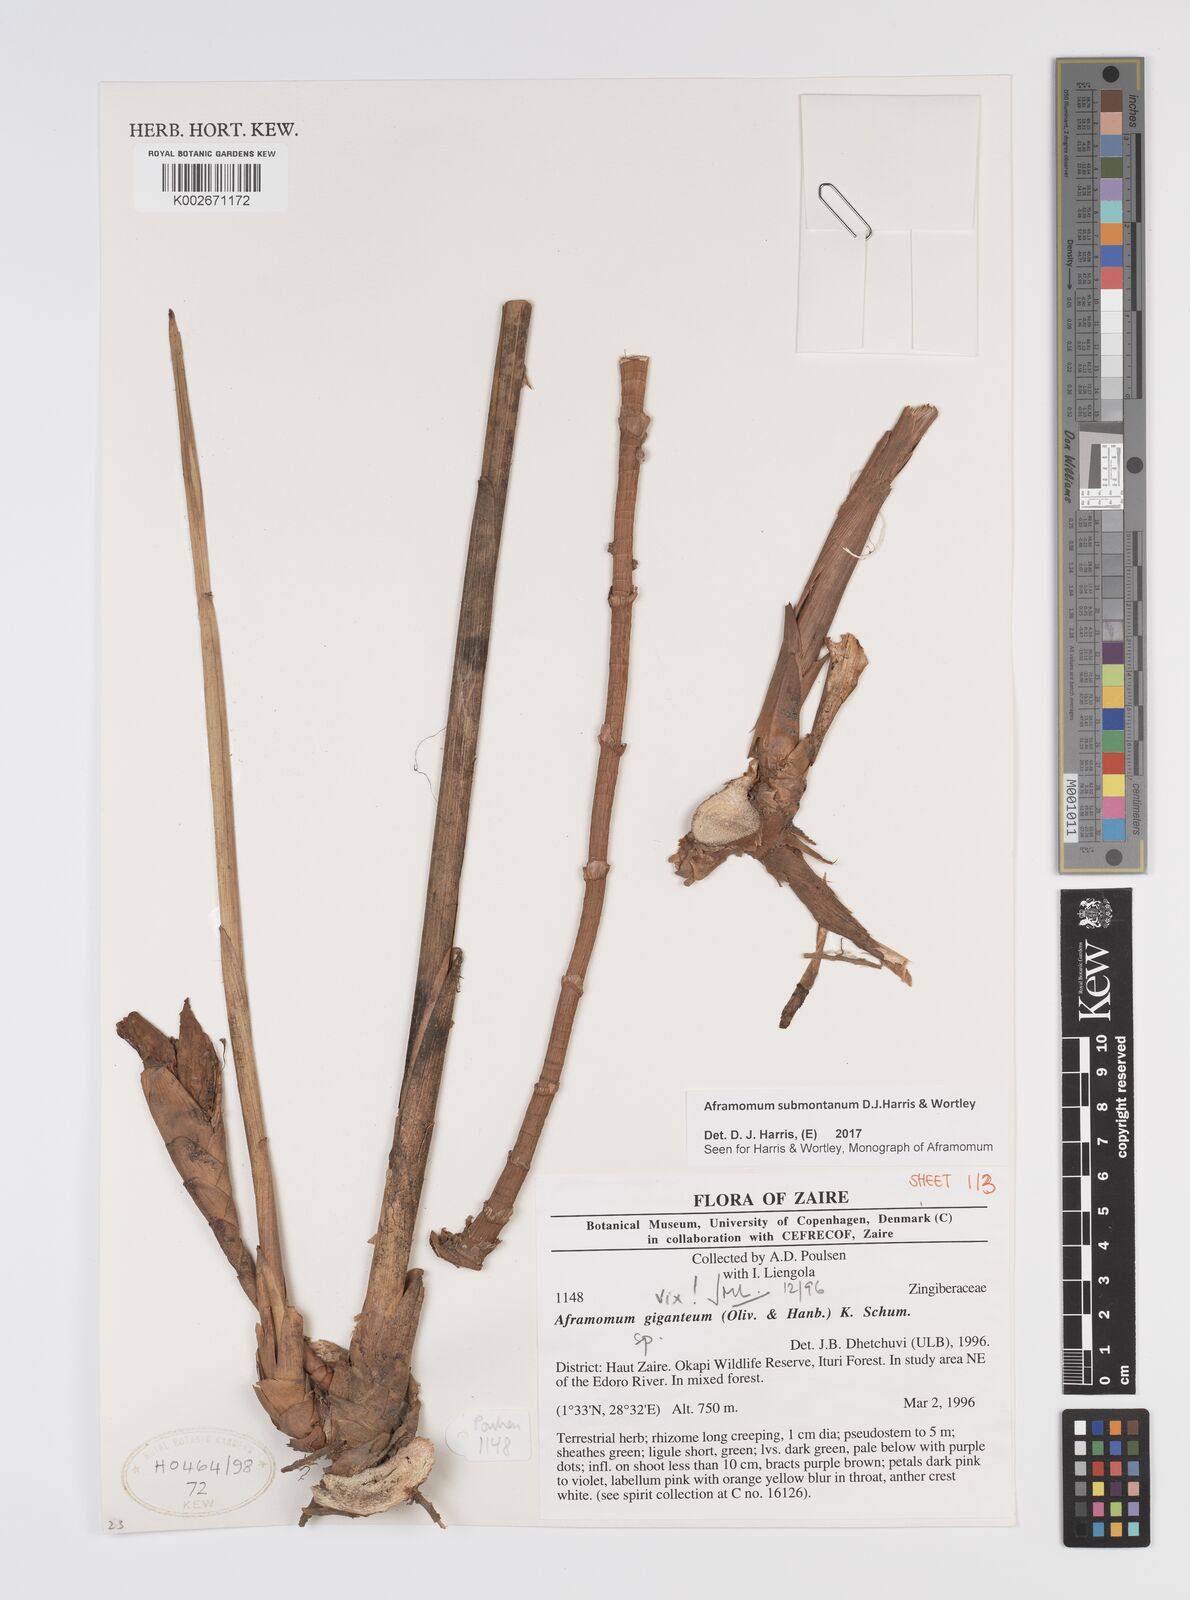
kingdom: Plantae
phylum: Tracheophyta
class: Liliopsida
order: Zingiberales
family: Zingiberaceae
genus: Aframomum
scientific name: Aframomum submontanum
